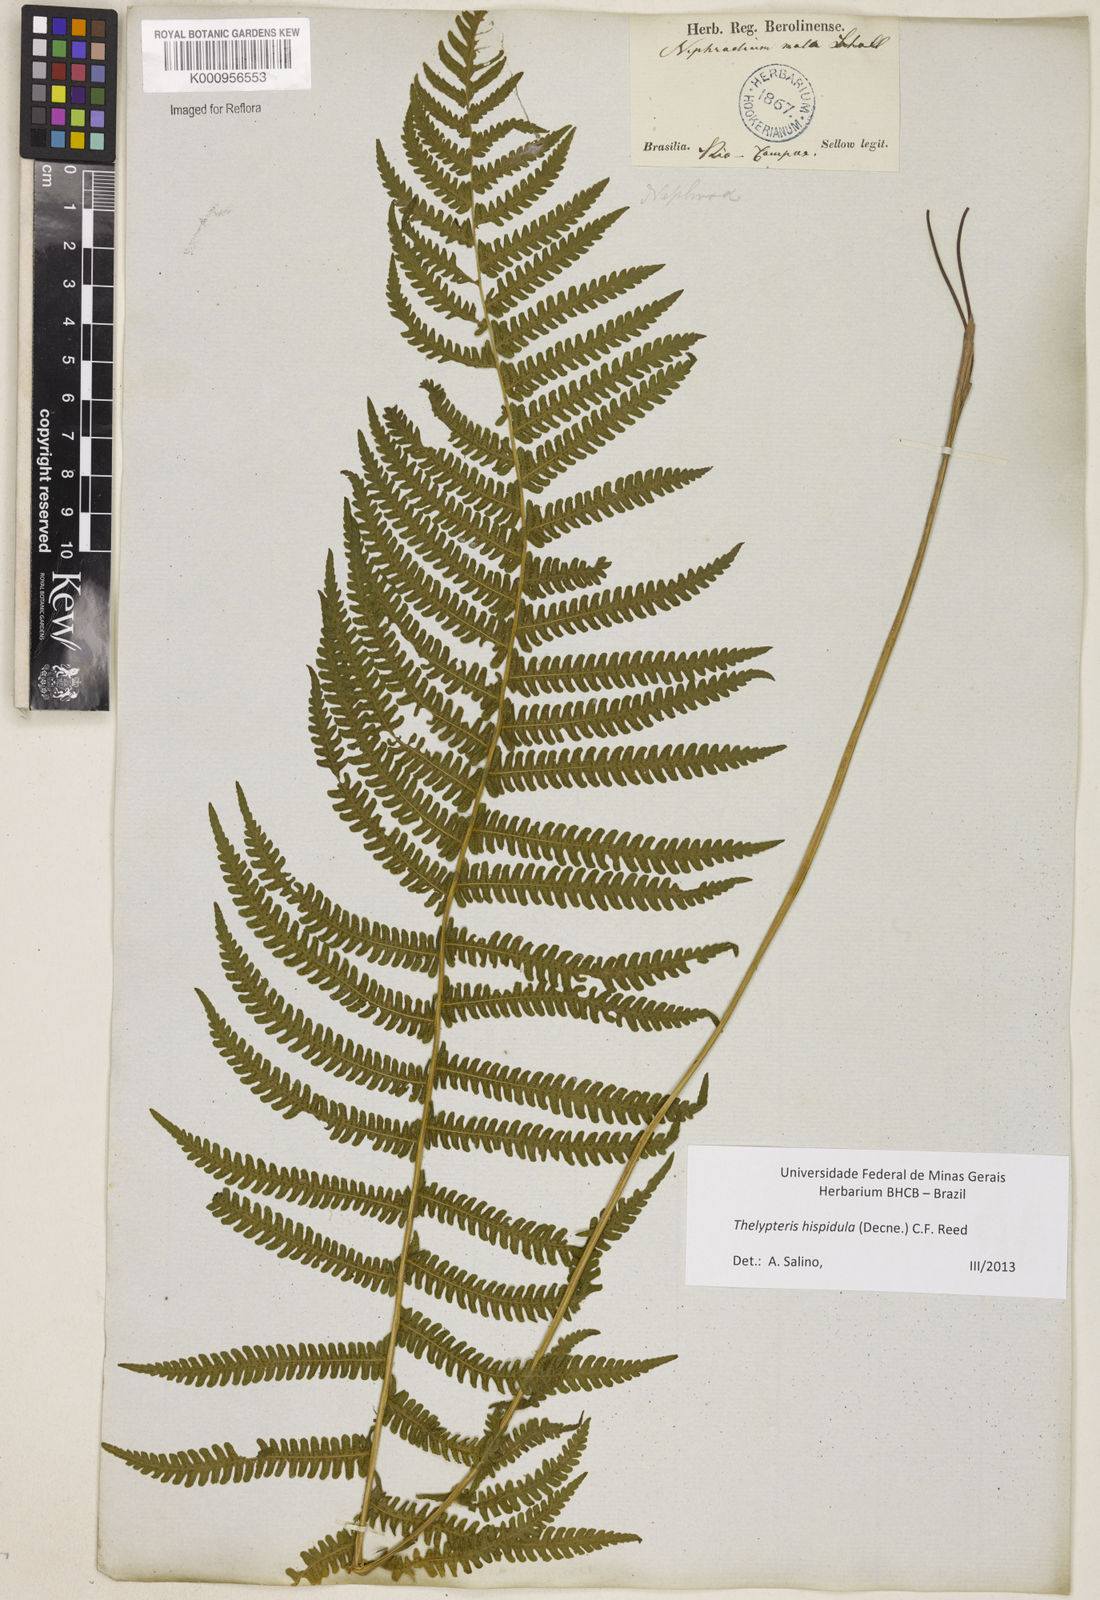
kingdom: Plantae
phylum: Tracheophyta
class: Polypodiopsida
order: Polypodiales
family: Thelypteridaceae
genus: Christella
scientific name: Christella hispidula
